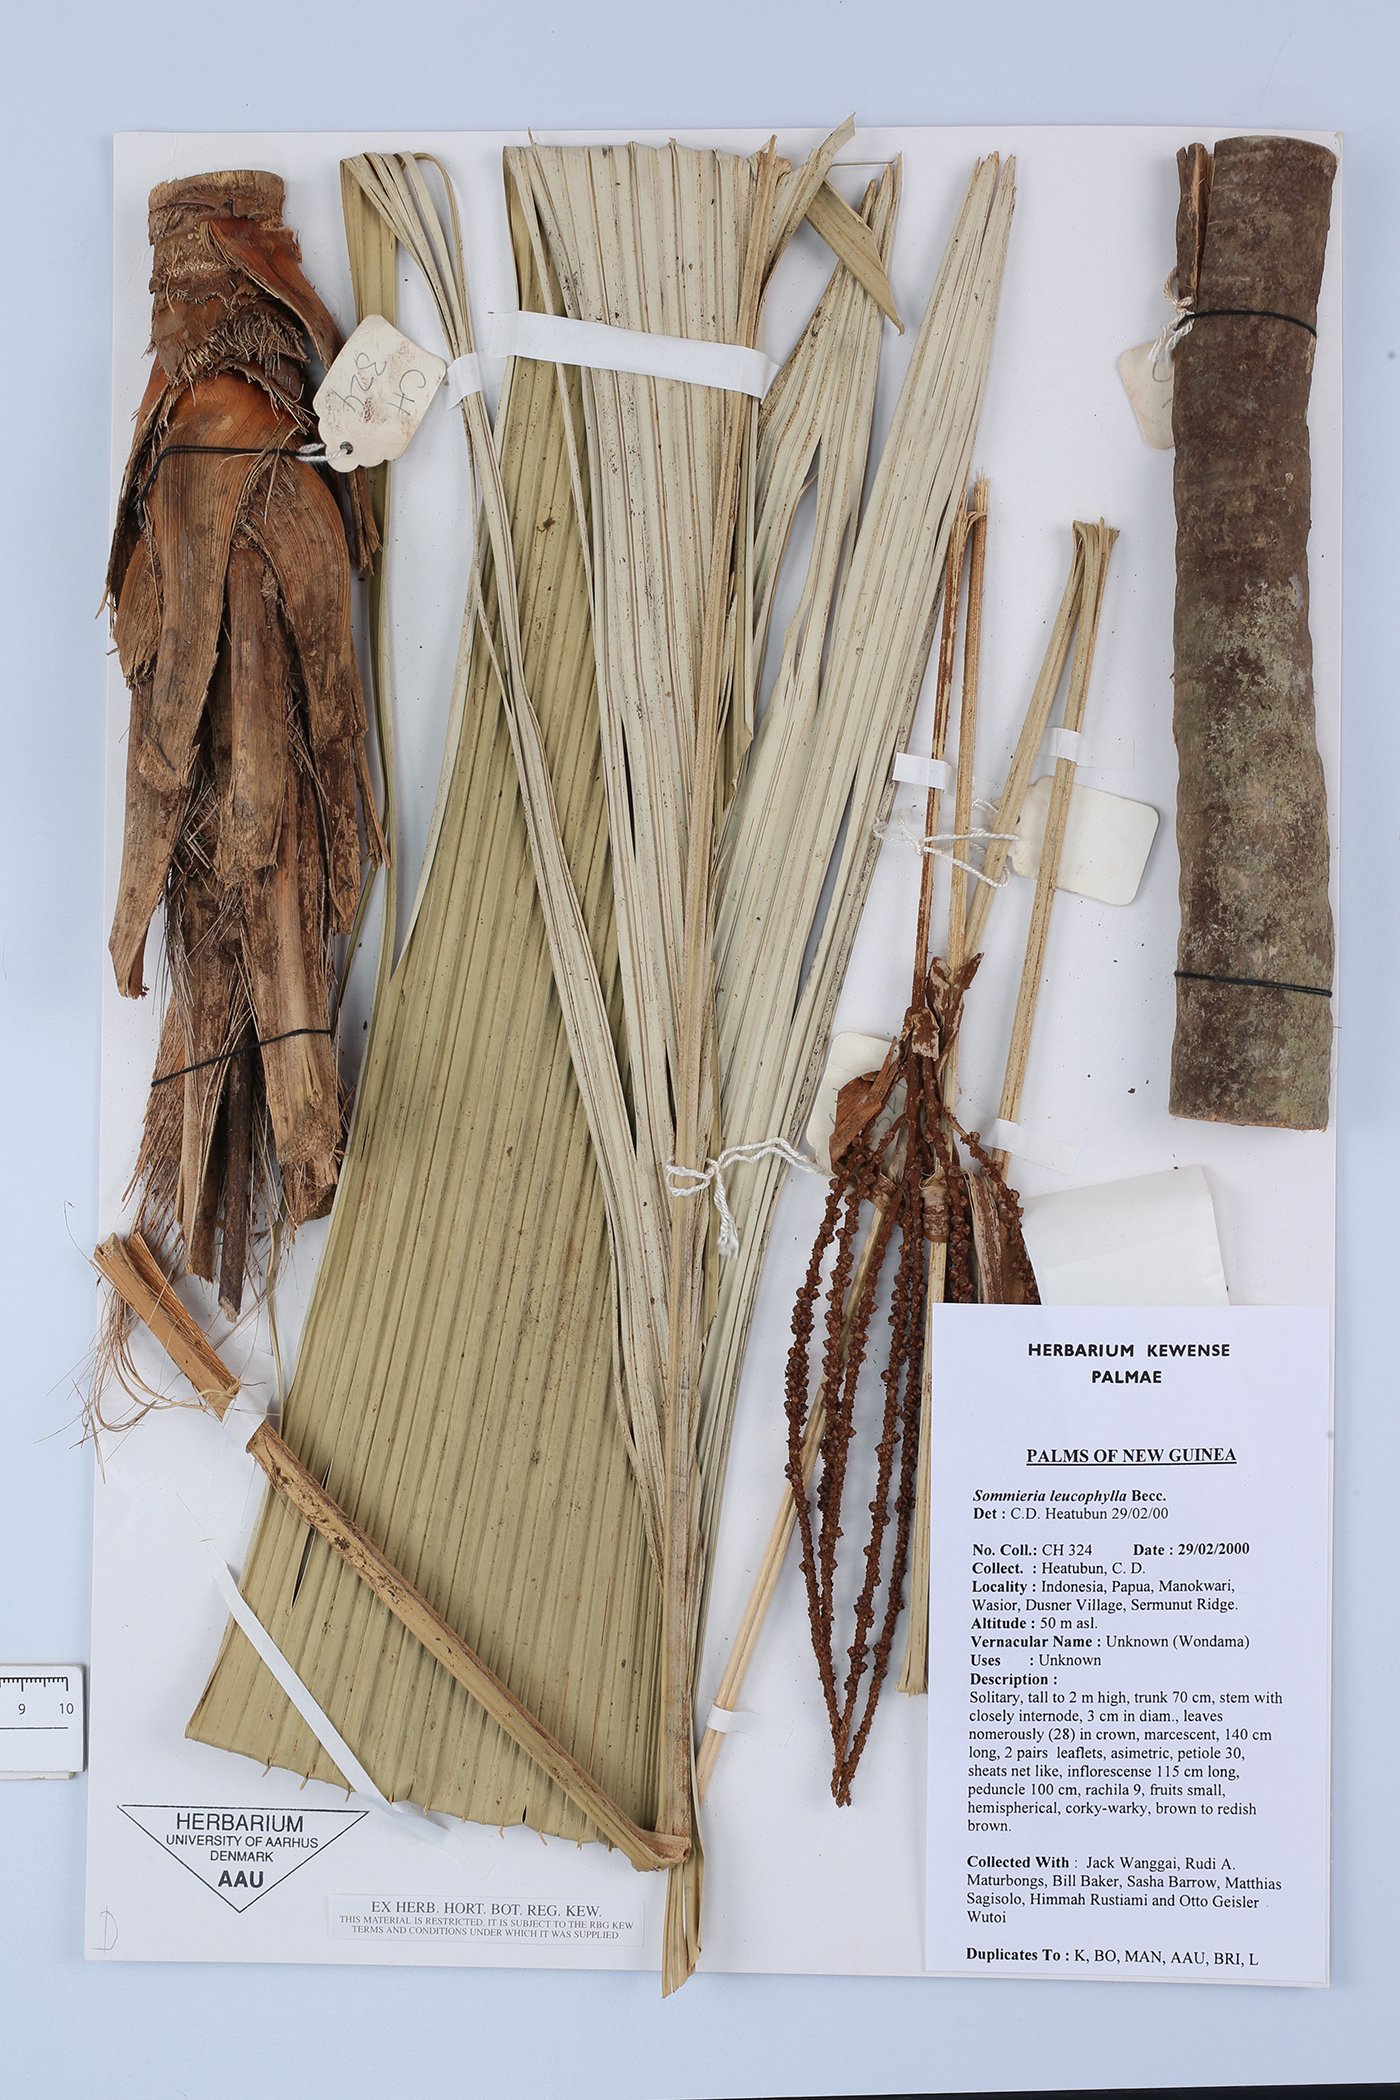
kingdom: Plantae
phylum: Tracheophyta
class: Liliopsida
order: Arecales
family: Arecaceae
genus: Sommieria
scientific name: Sommieria leucophylla
